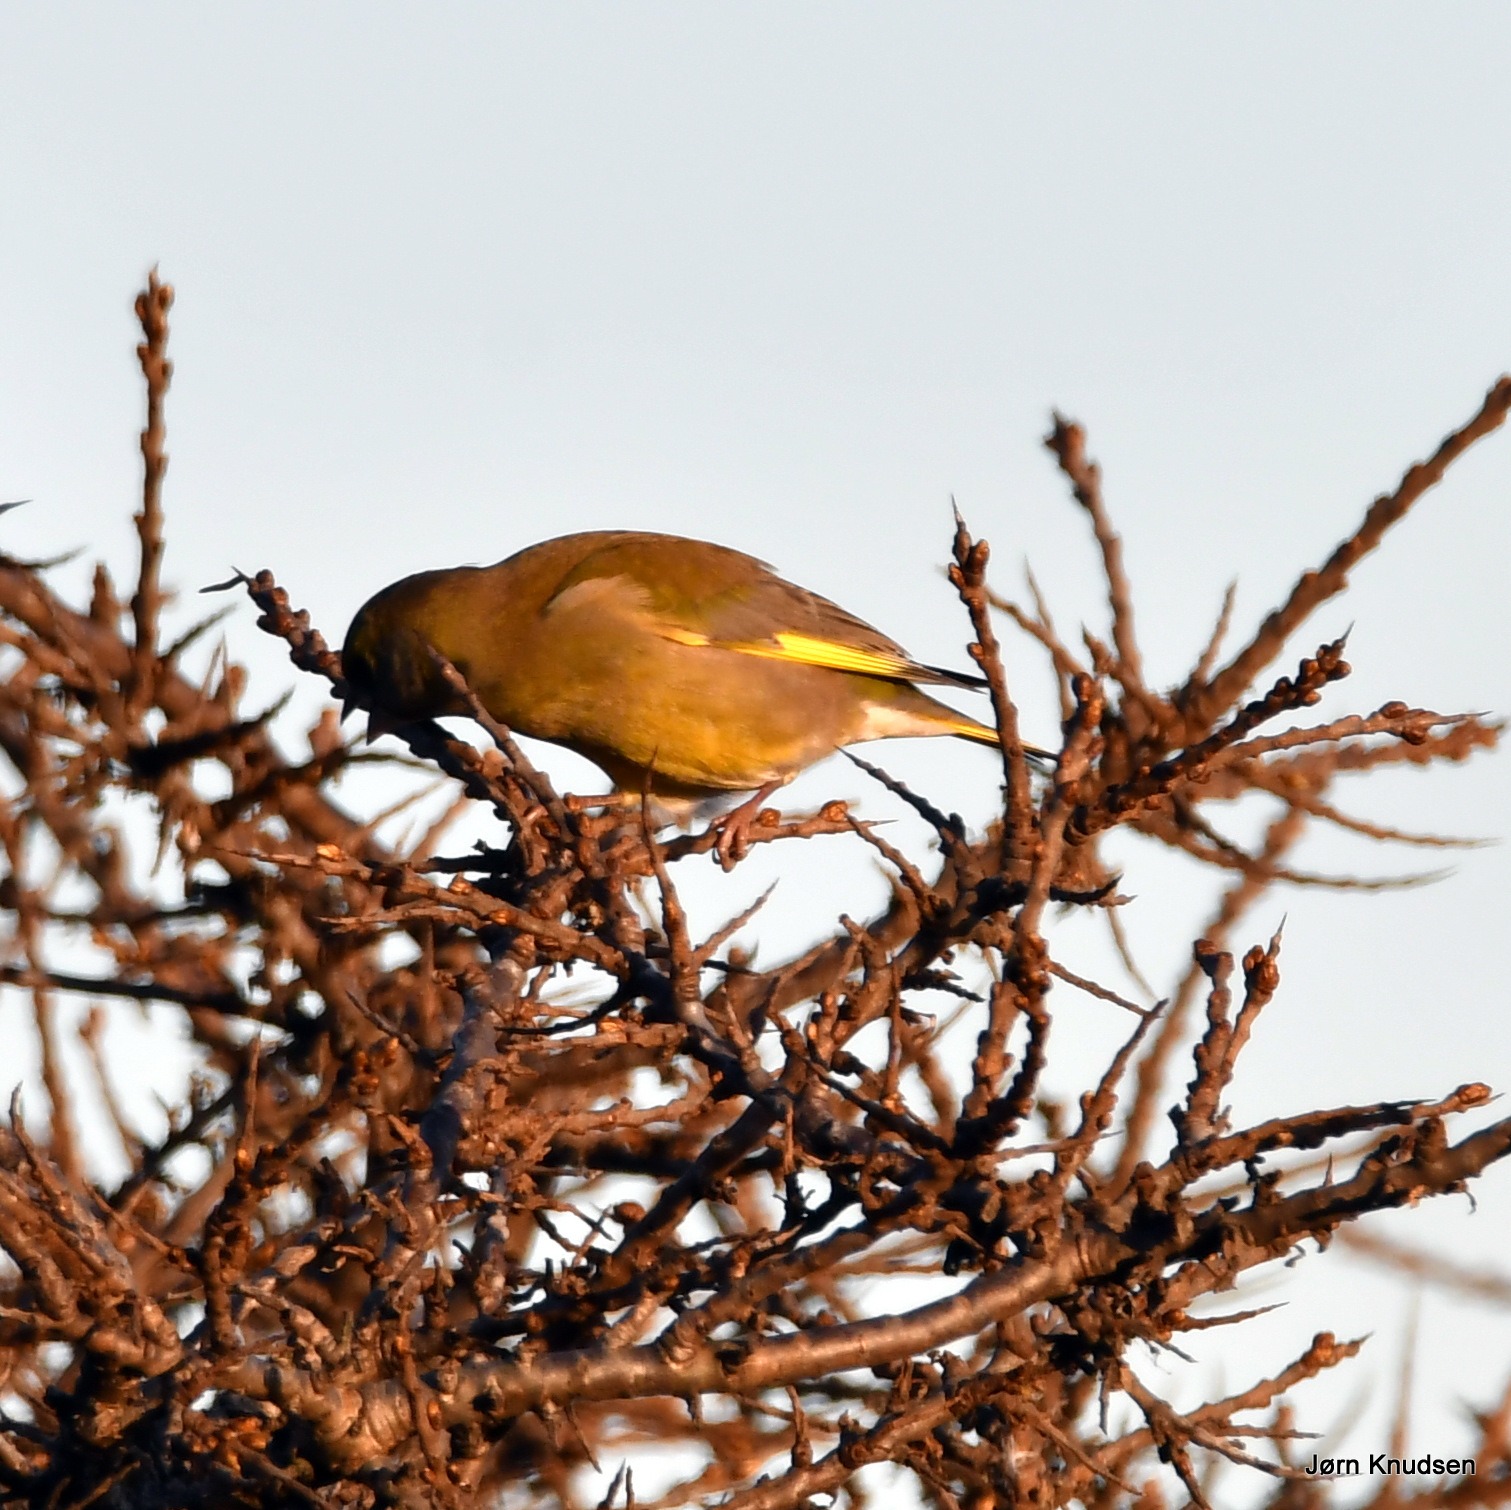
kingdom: Plantae
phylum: Tracheophyta
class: Liliopsida
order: Poales
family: Poaceae
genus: Chloris
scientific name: Chloris chloris
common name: Grønirisk
